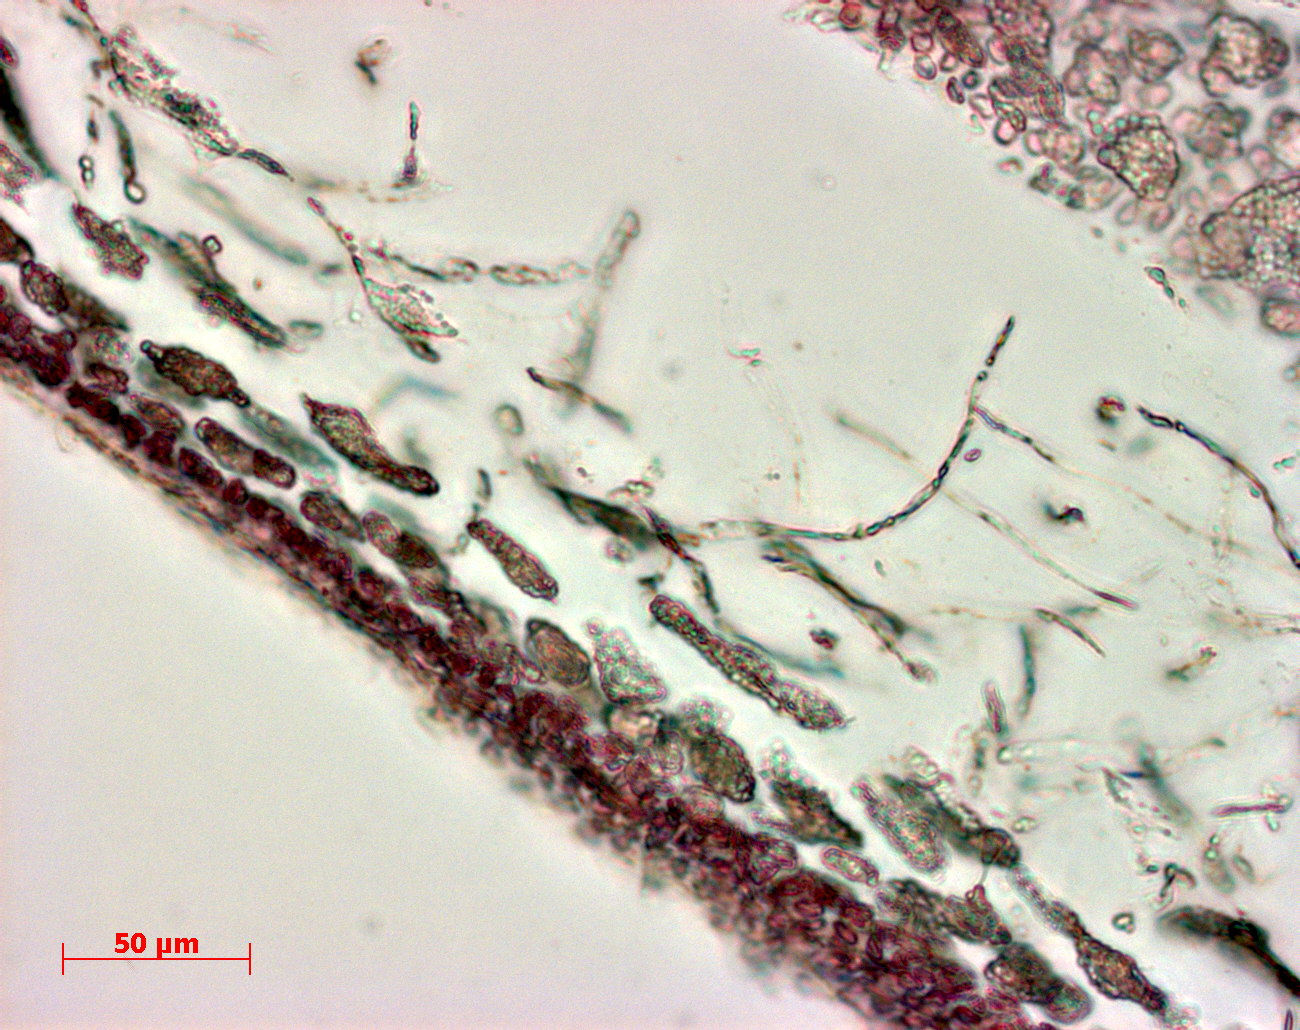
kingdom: Plantae
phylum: Rhodophyta
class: Florideophyceae
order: Gigartinales
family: Kallymeniaceae
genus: Psaromenia
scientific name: Psaromenia berggrenii
